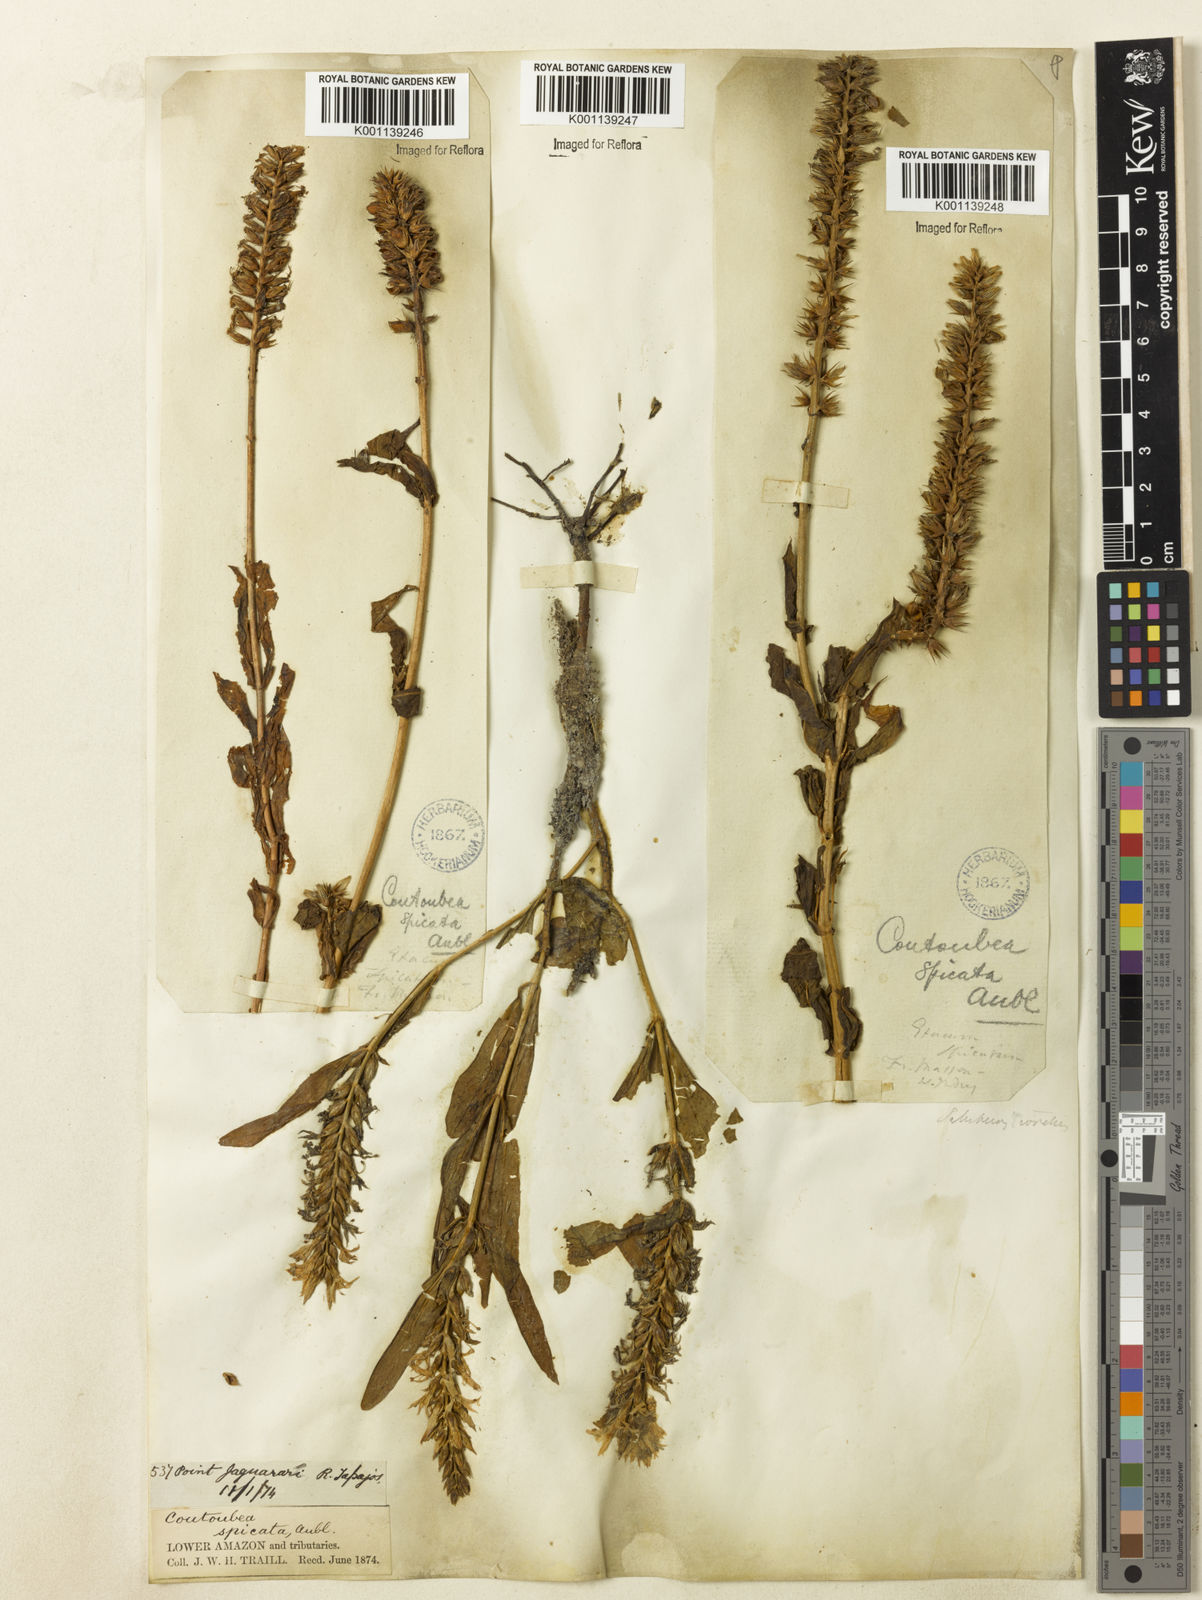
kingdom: Plantae
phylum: Tracheophyta
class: Magnoliopsida
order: Gentianales
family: Gentianaceae
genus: Coutoubea
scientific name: Coutoubea spicata
